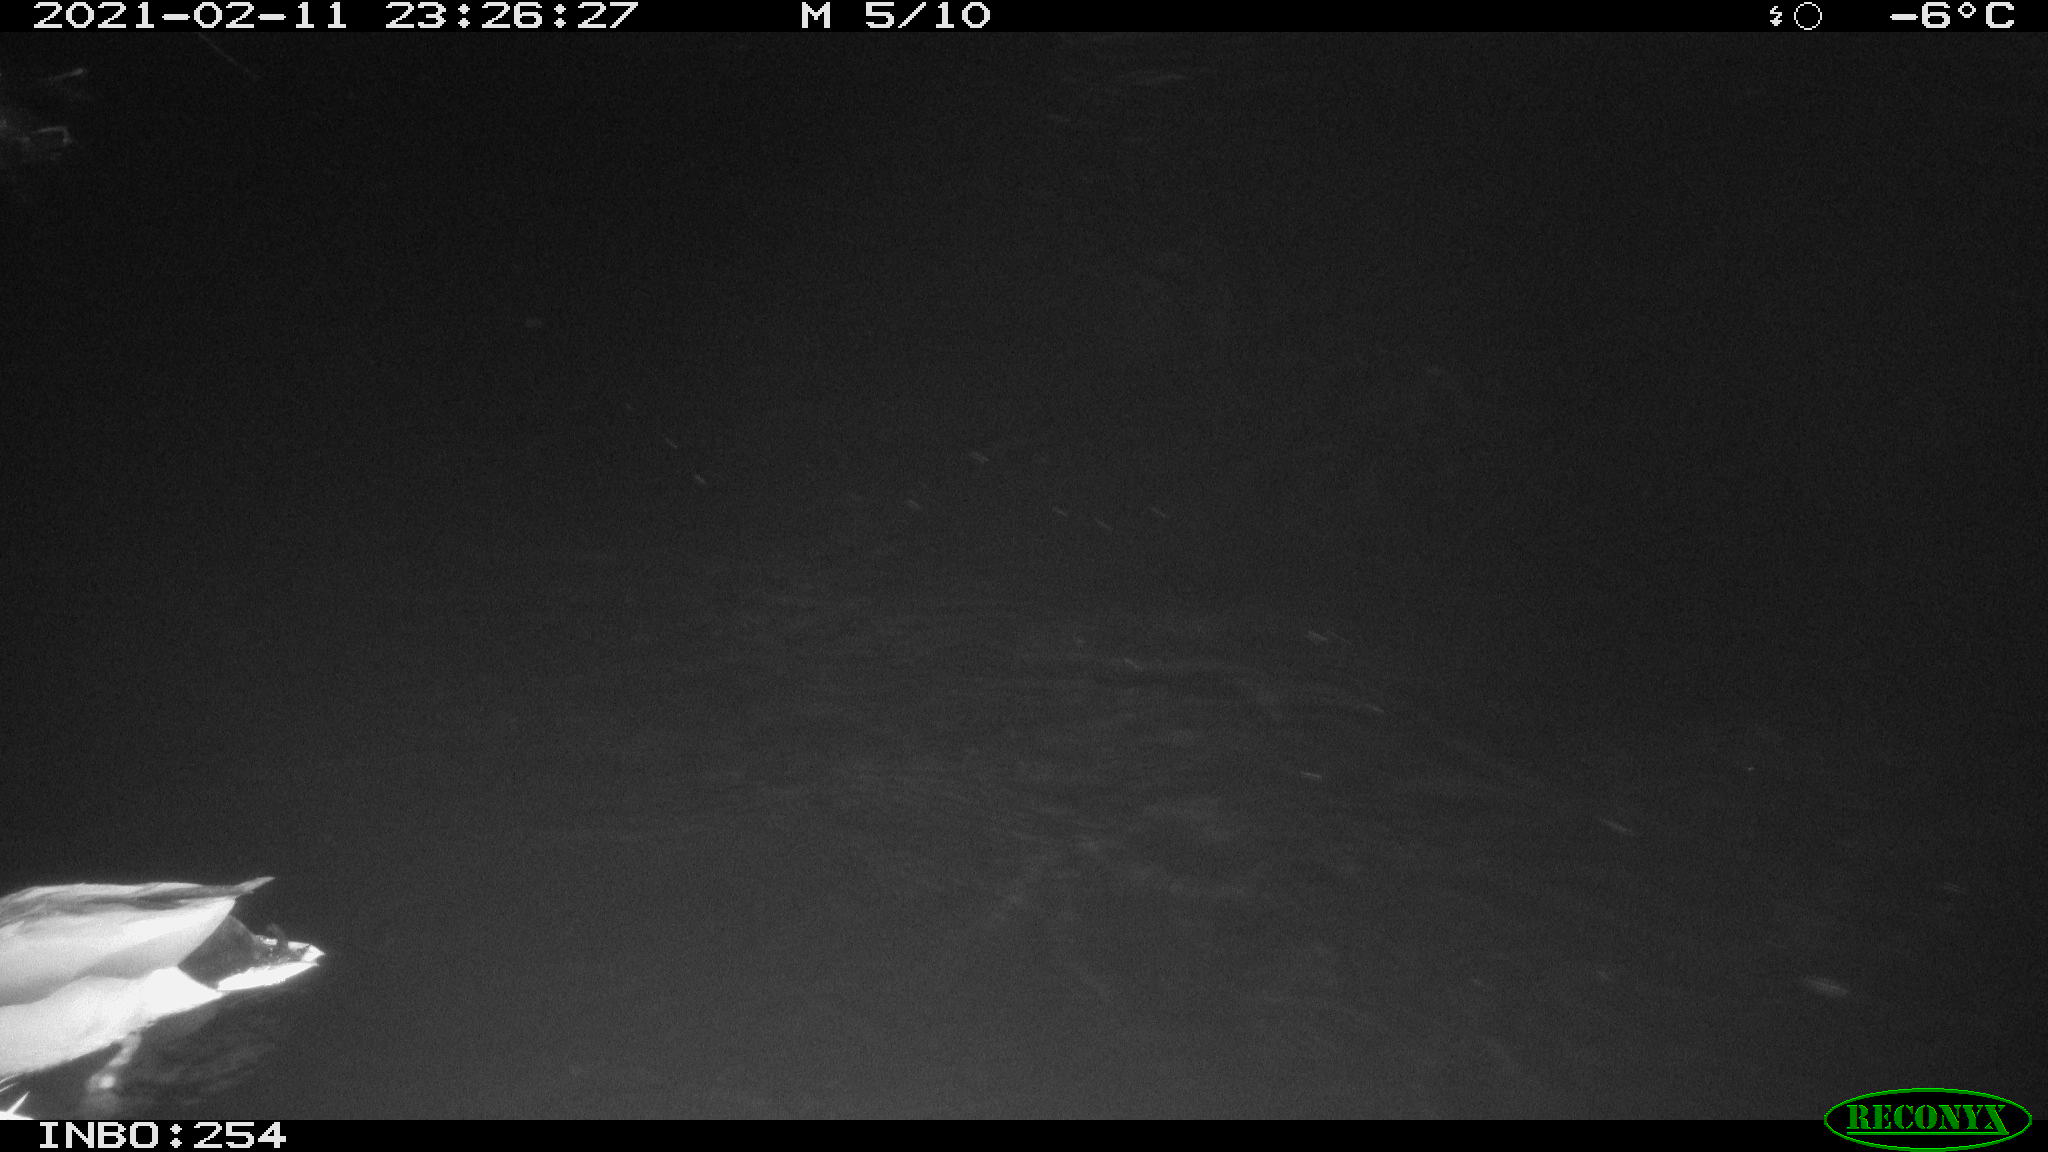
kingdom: Animalia
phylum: Chordata
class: Aves
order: Anseriformes
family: Anatidae
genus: Anas
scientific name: Anas platyrhynchos
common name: Mallard
